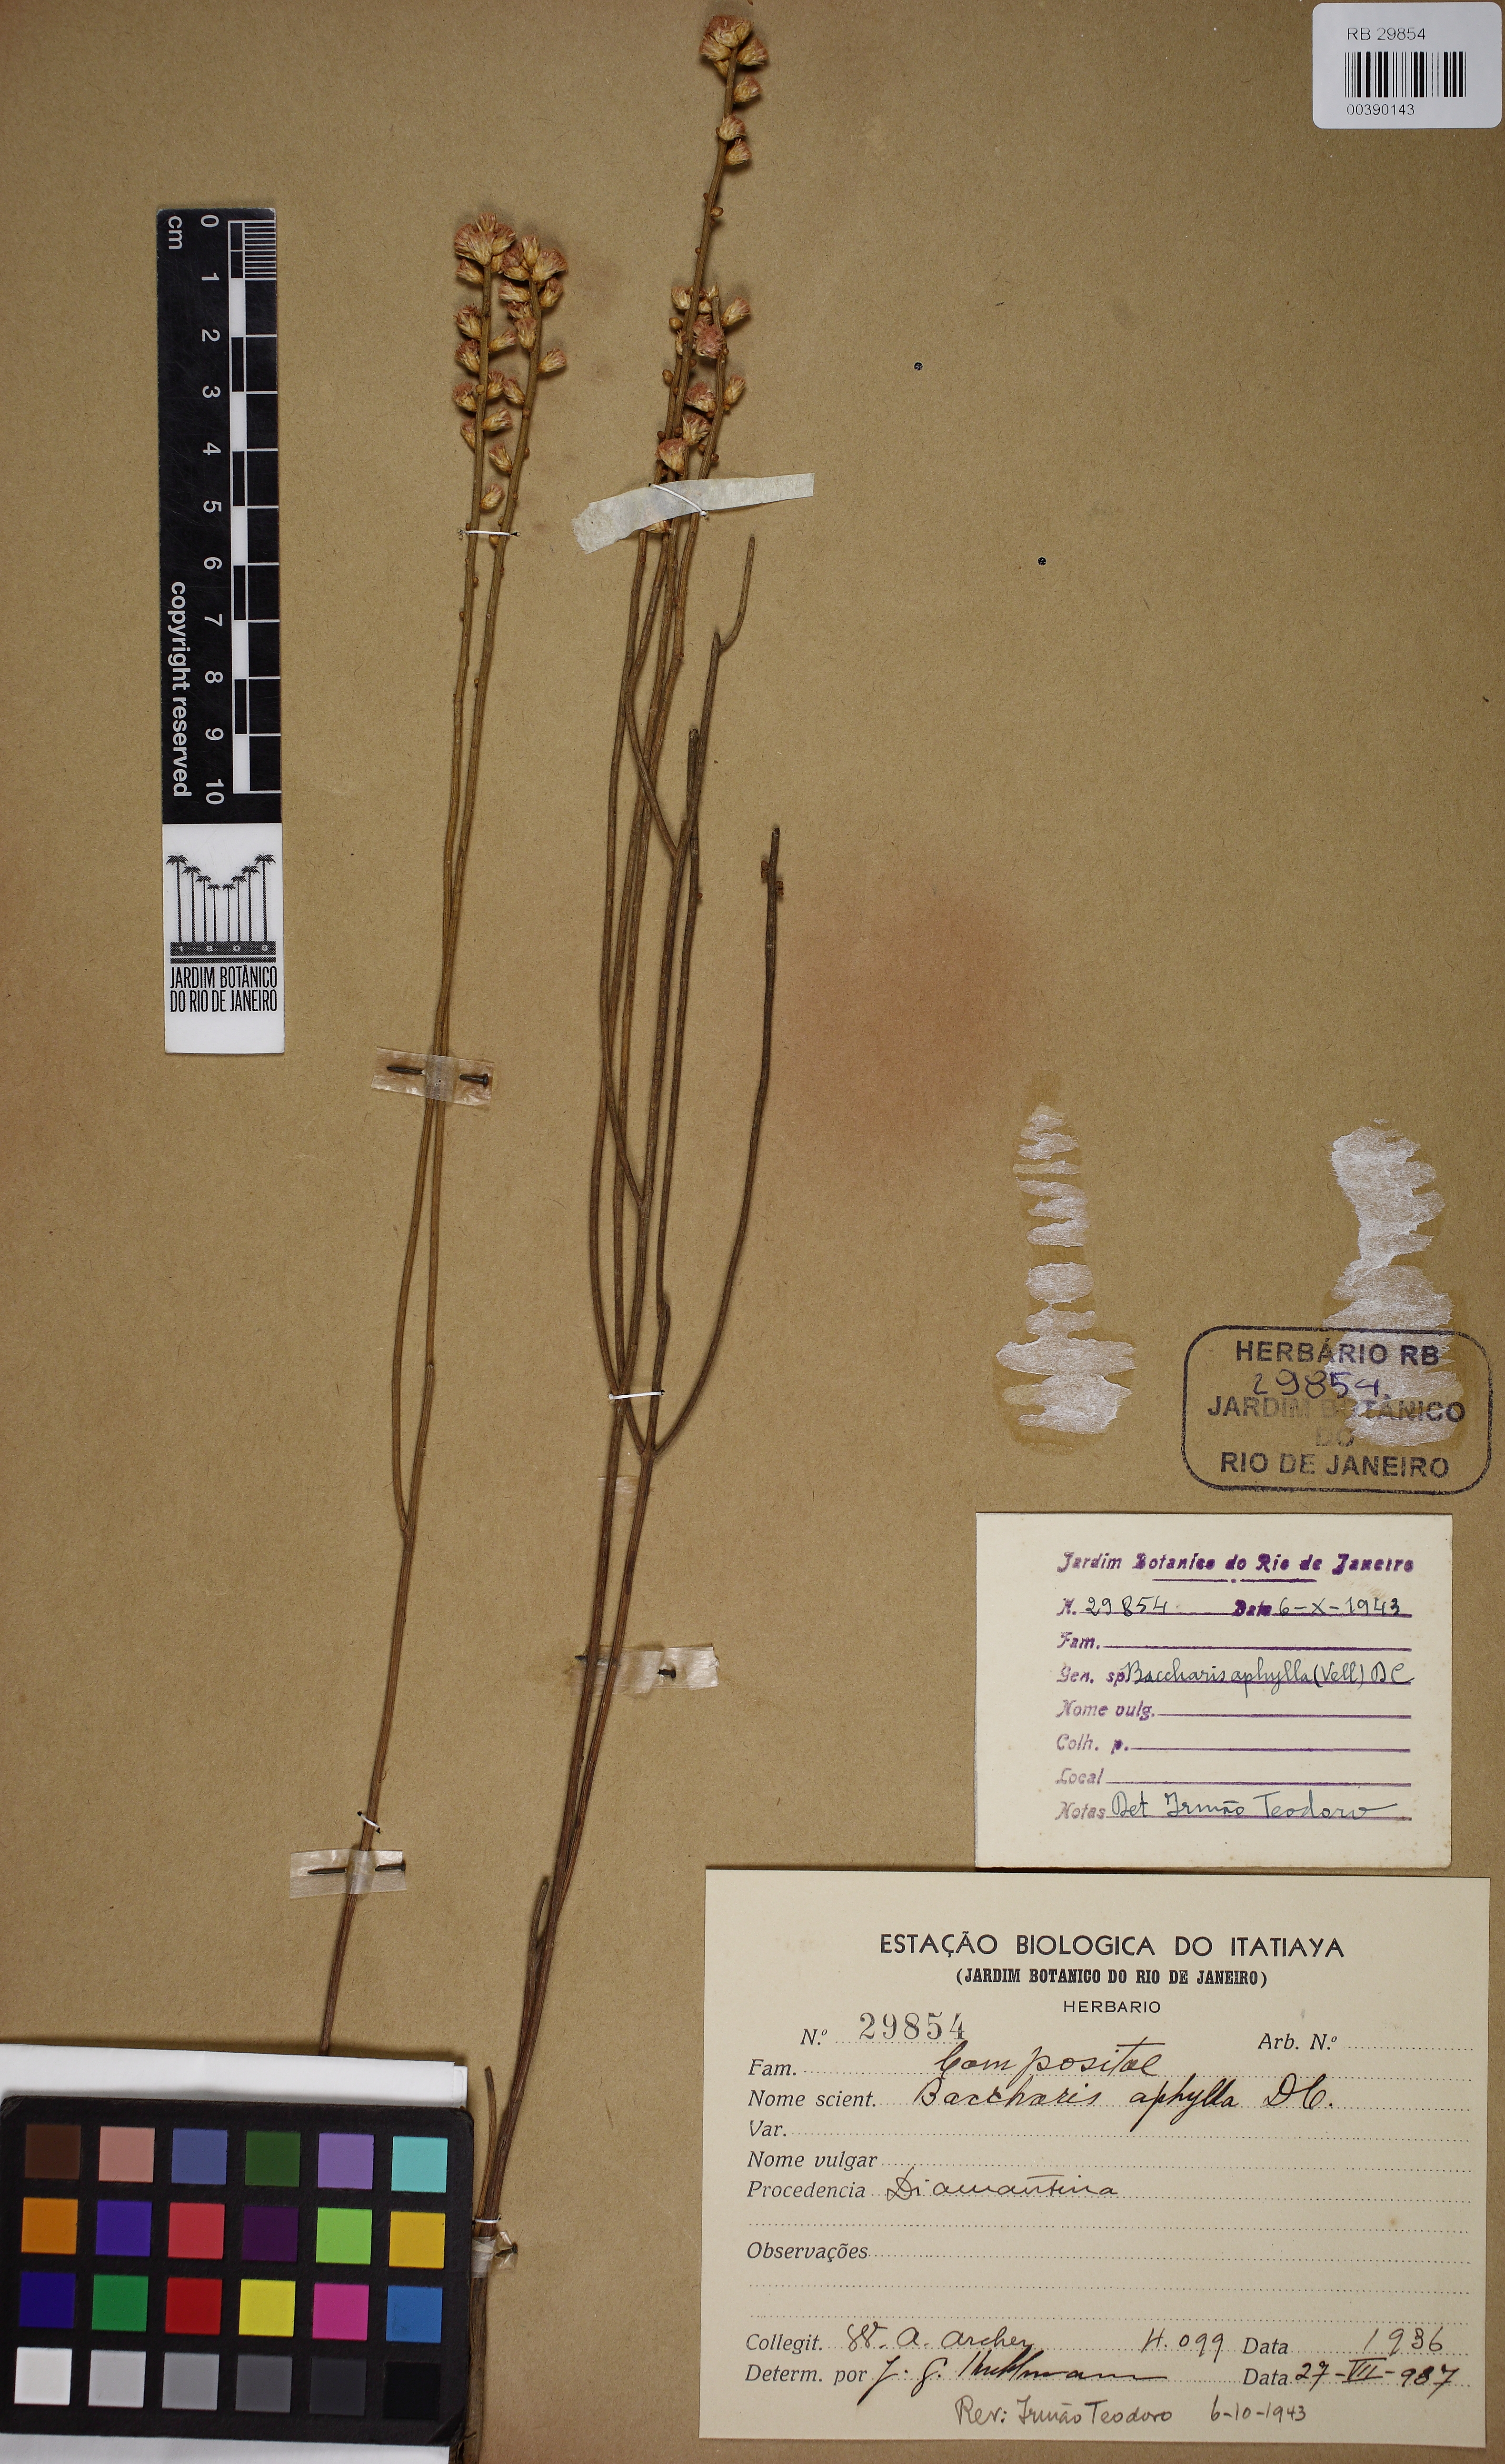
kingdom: Plantae
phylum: Tracheophyta
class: Magnoliopsida
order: Asterales
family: Asteraceae
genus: Baccharis
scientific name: Baccharis aphylla
